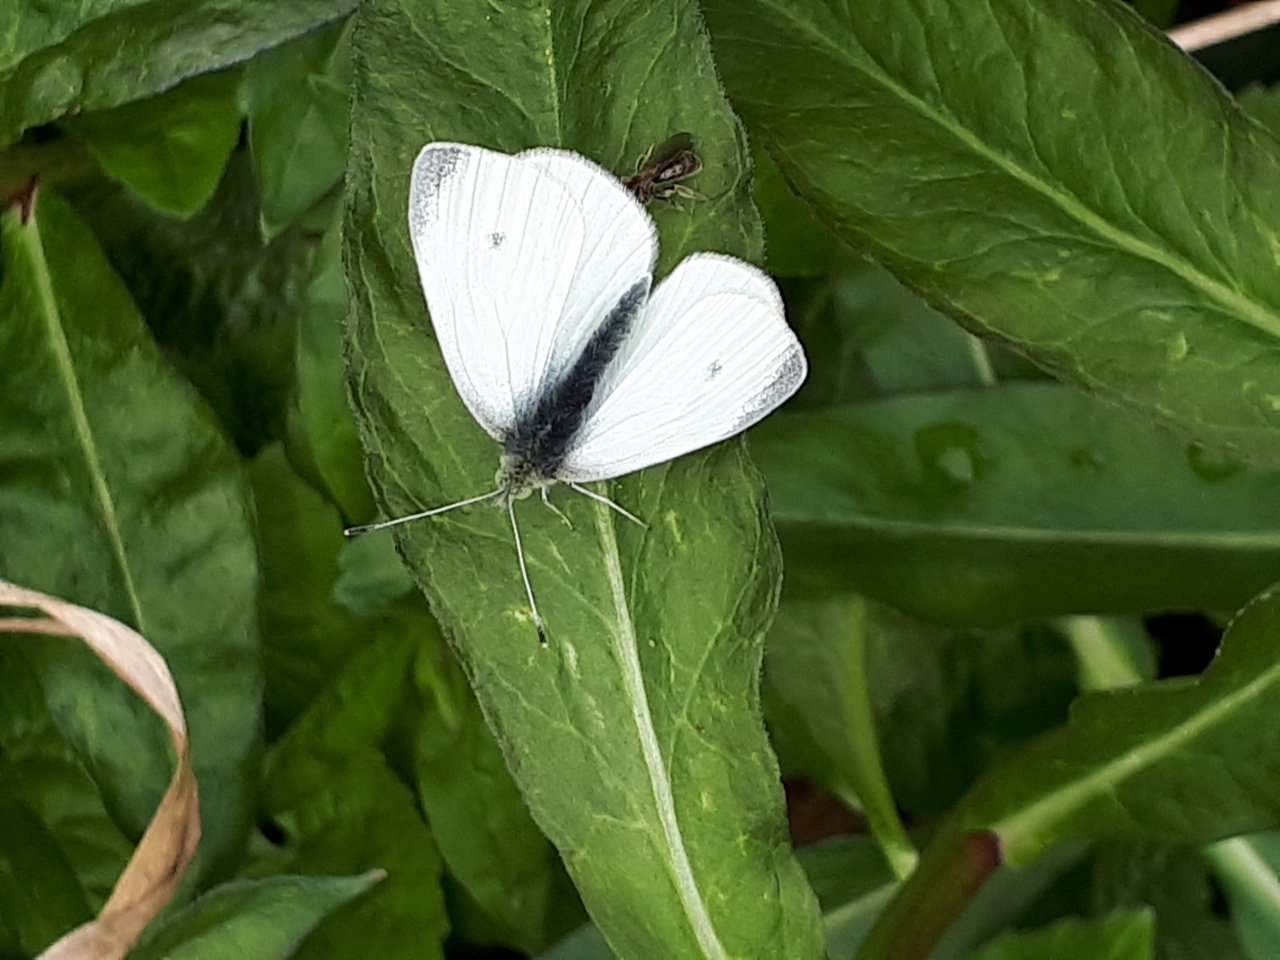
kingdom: Animalia
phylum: Arthropoda
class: Insecta
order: Lepidoptera
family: Pieridae
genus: Pieris
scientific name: Pieris rapae
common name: Cabbage White
